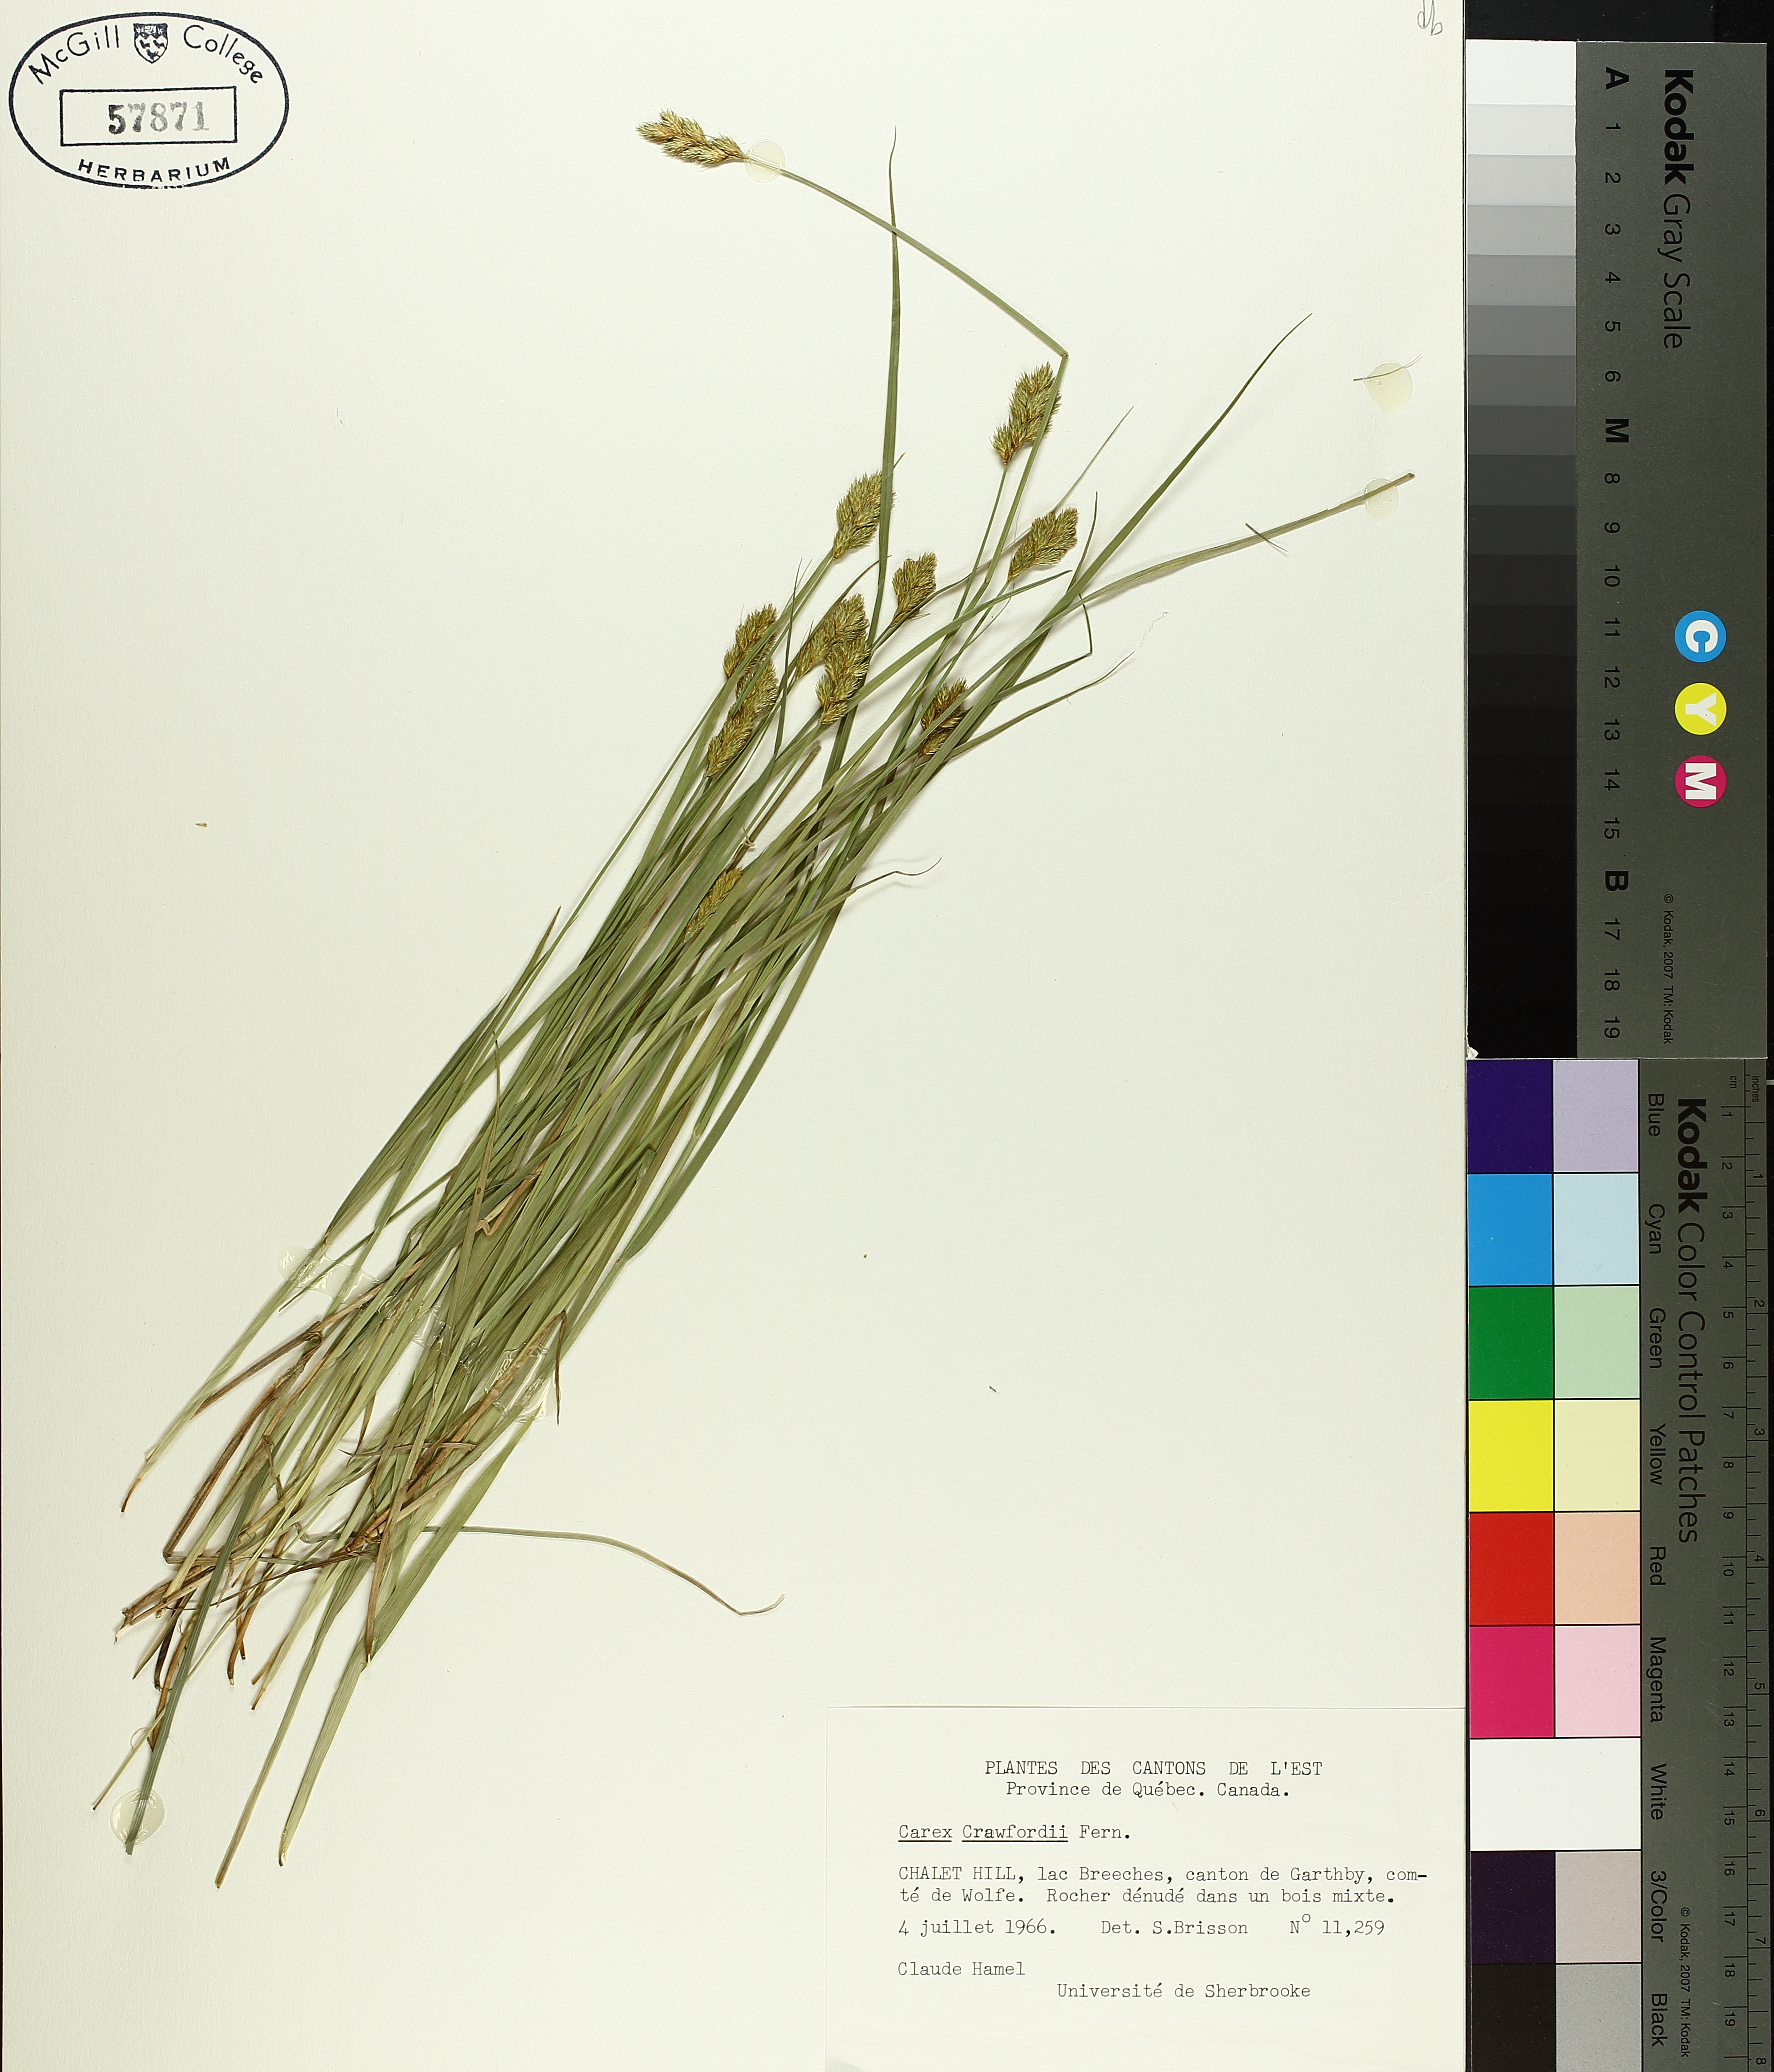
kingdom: Plantae
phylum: Tracheophyta
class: Liliopsida
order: Poales
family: Cyperaceae
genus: Carex
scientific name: Carex crawfordii
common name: Crawford's sedge
